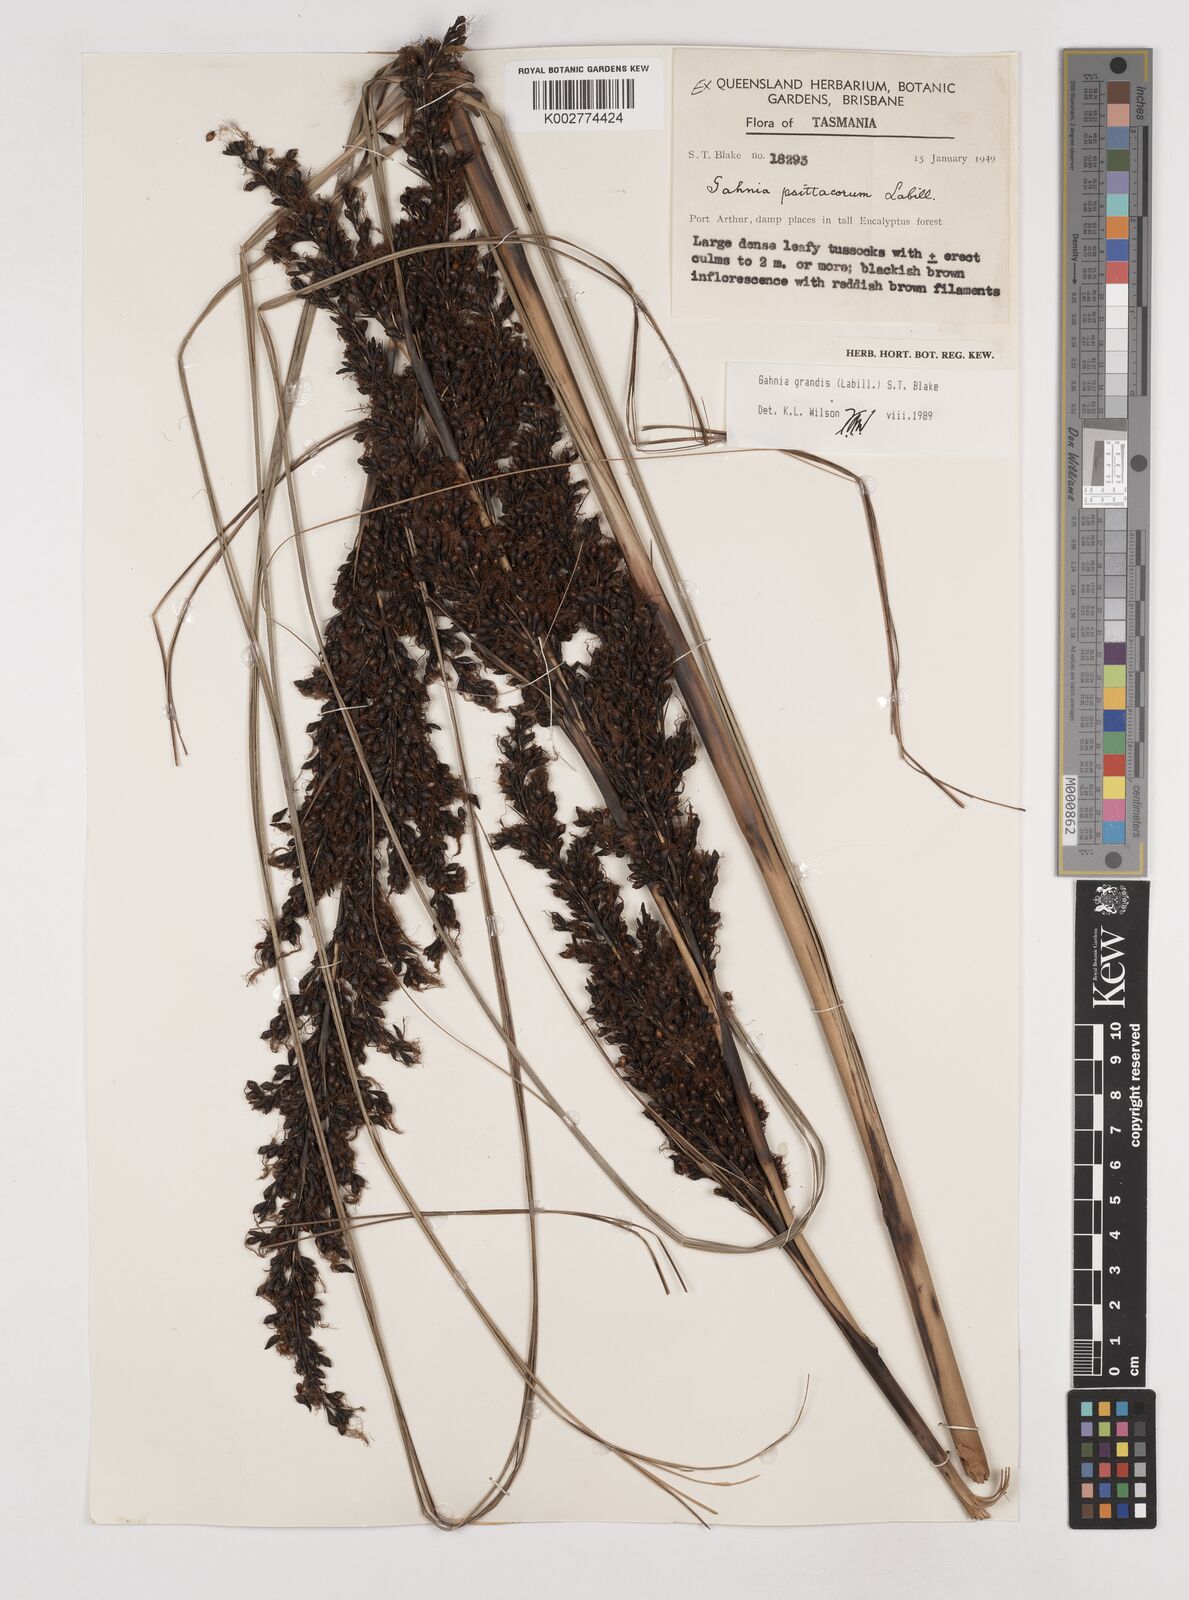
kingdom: Plantae
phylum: Tracheophyta
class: Liliopsida
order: Poales
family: Cyperaceae
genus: Gahnia
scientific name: Gahnia grandis
